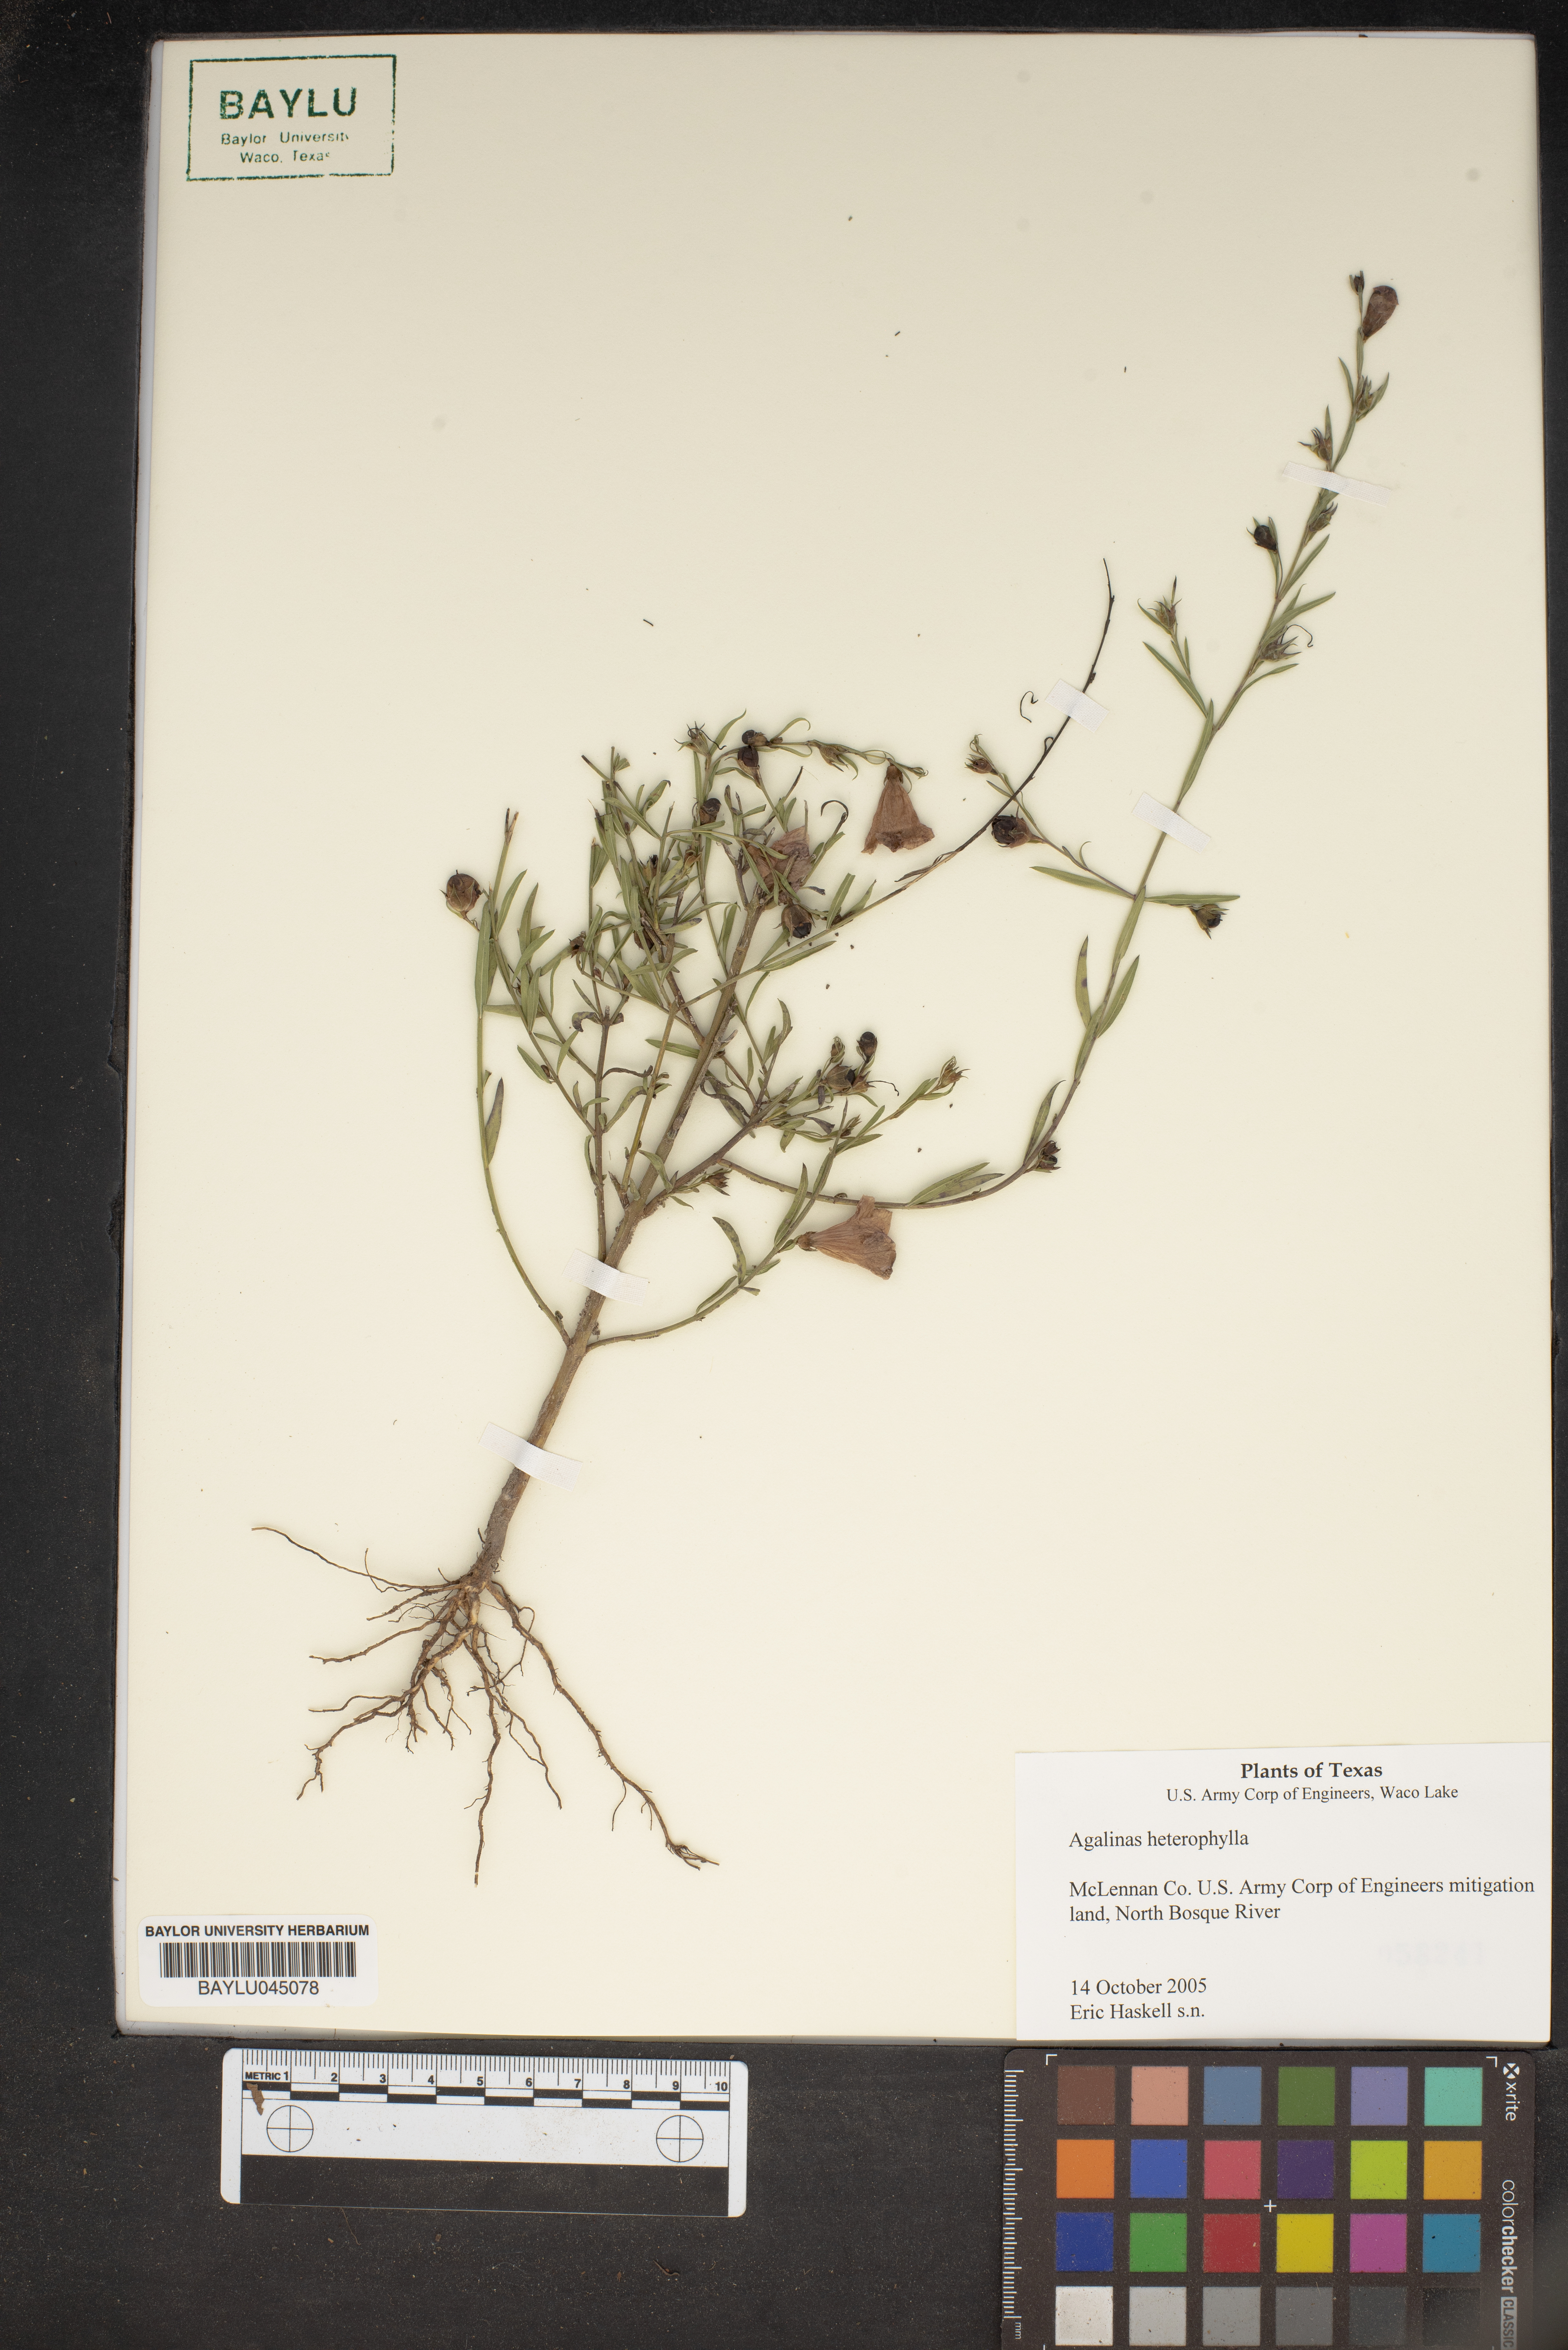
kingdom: Plantae
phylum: Tracheophyta
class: Magnoliopsida
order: Lamiales
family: Orobanchaceae
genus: Agalinis
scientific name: Agalinis heterophylla
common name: Prairie agalinis
